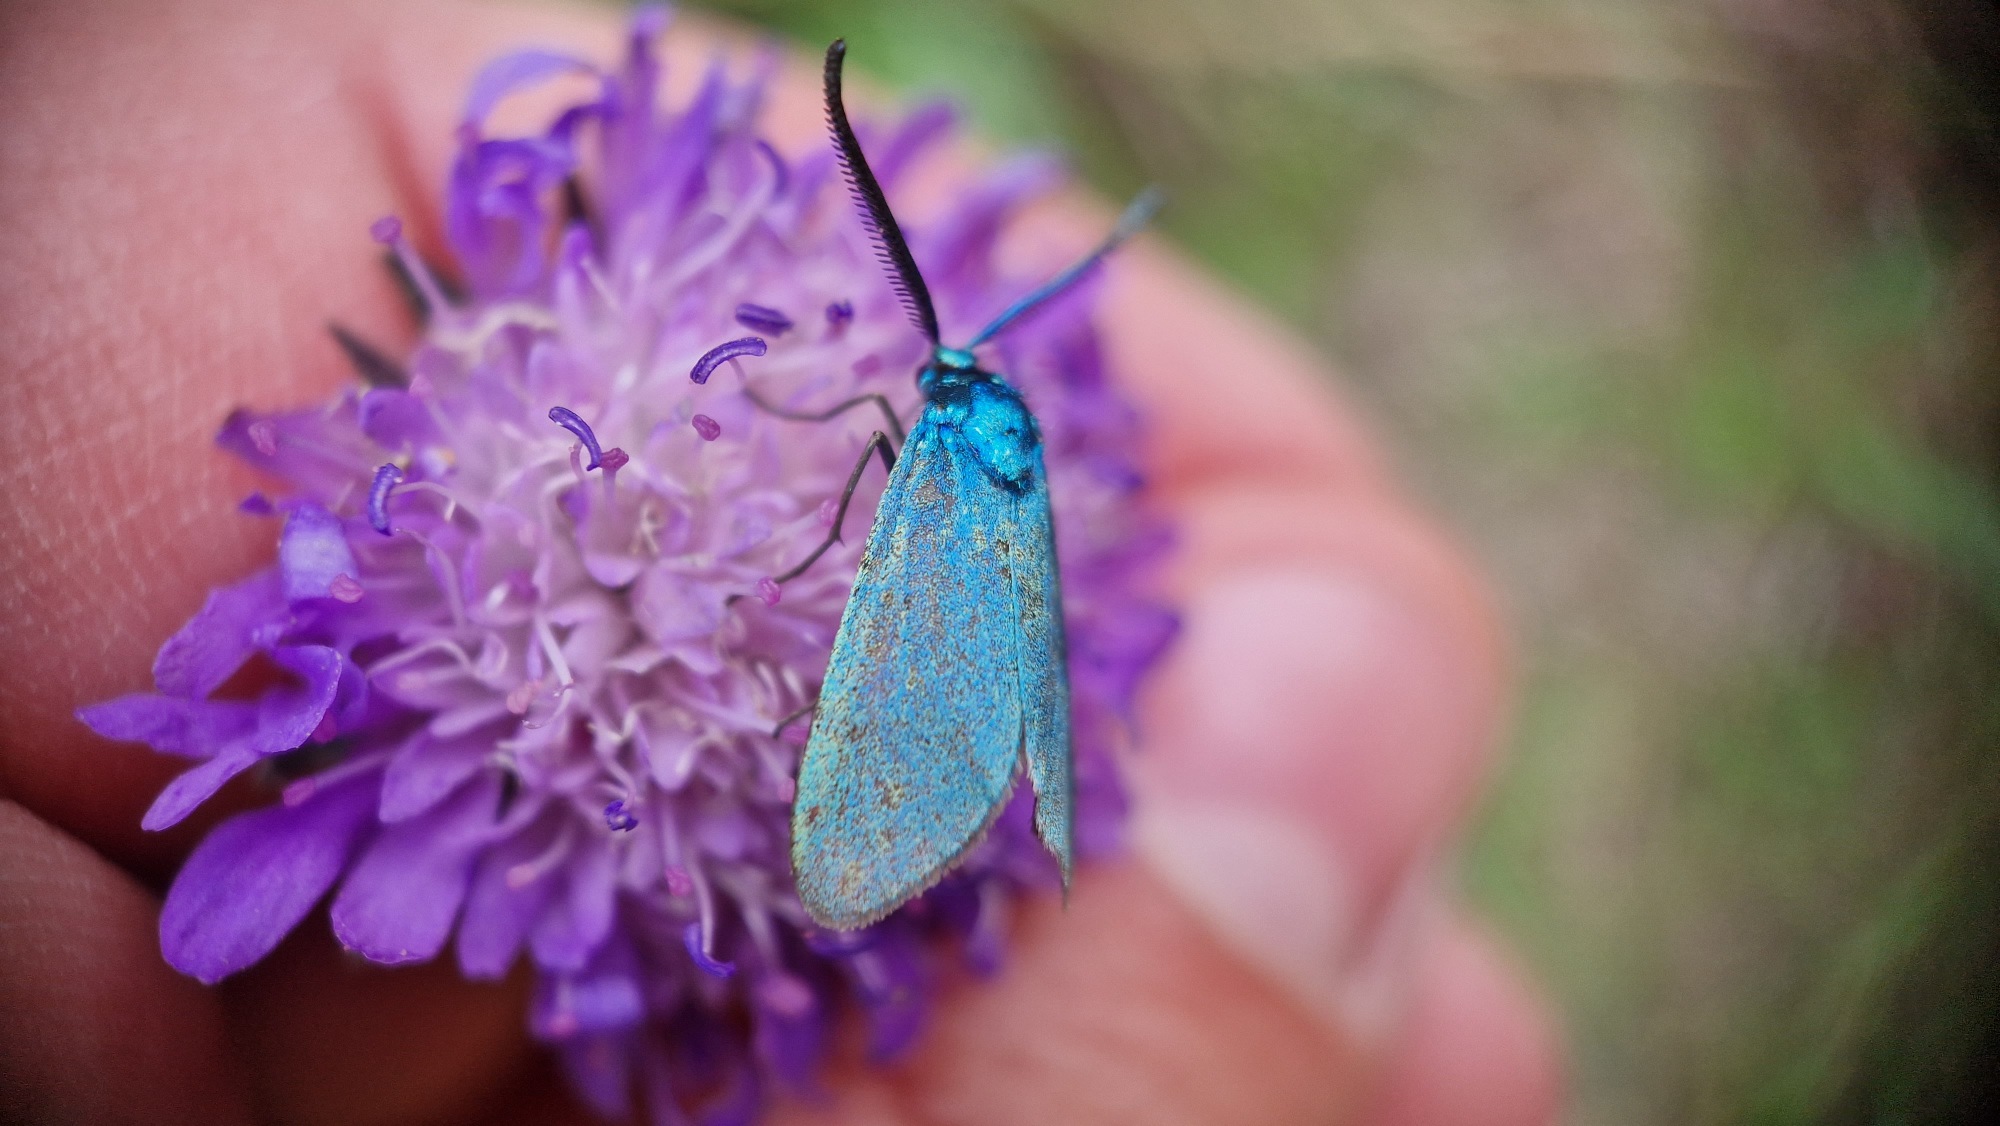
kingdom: Animalia
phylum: Arthropoda
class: Insecta
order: Lepidoptera
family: Zygaenidae
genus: Adscita
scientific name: Adscita statices
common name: Metalvinge
